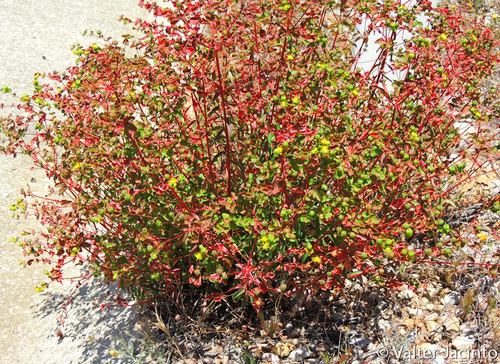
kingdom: Plantae
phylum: Tracheophyta
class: Magnoliopsida
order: Malpighiales
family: Euphorbiaceae
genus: Euphorbia
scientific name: Euphorbia paniculata
